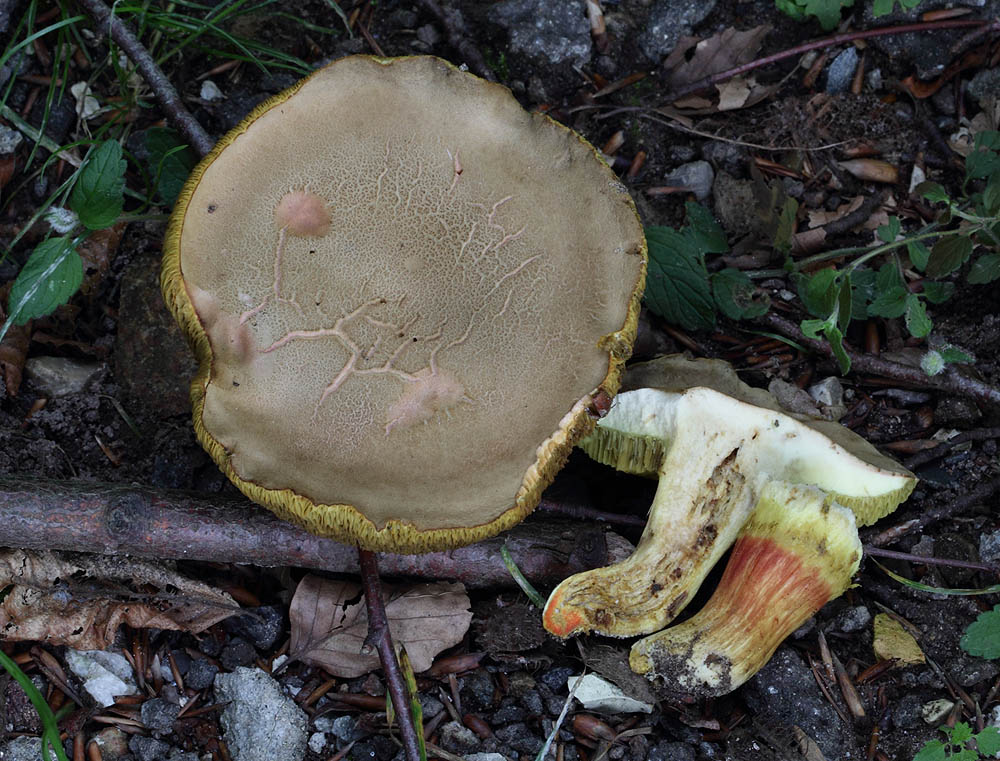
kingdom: Fungi
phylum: Basidiomycota
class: Agaricomycetes
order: Boletales
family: Boletaceae
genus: Hortiboletus
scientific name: Hortiboletus engelii
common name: fersken-rørhat
